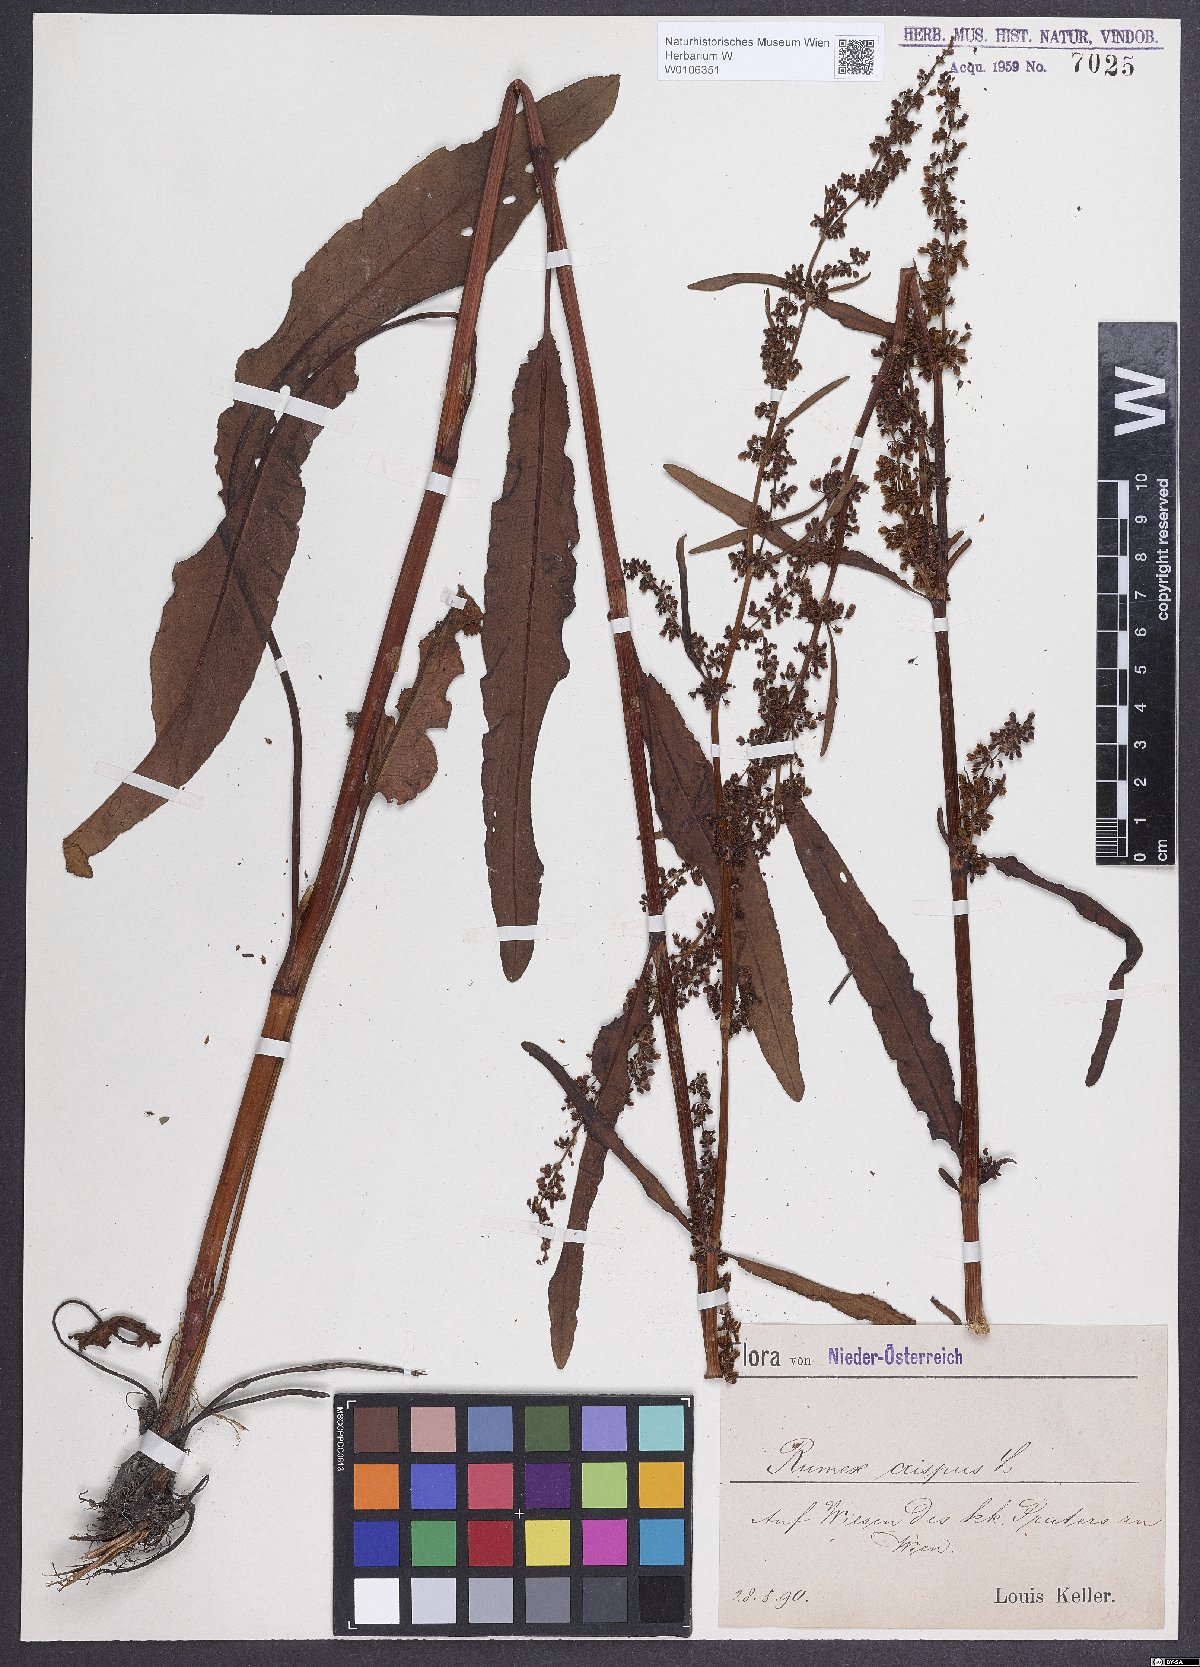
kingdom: Plantae
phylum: Tracheophyta
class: Magnoliopsida
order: Caryophyllales
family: Polygonaceae
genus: Rumex
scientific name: Rumex crispus
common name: Curled dock
